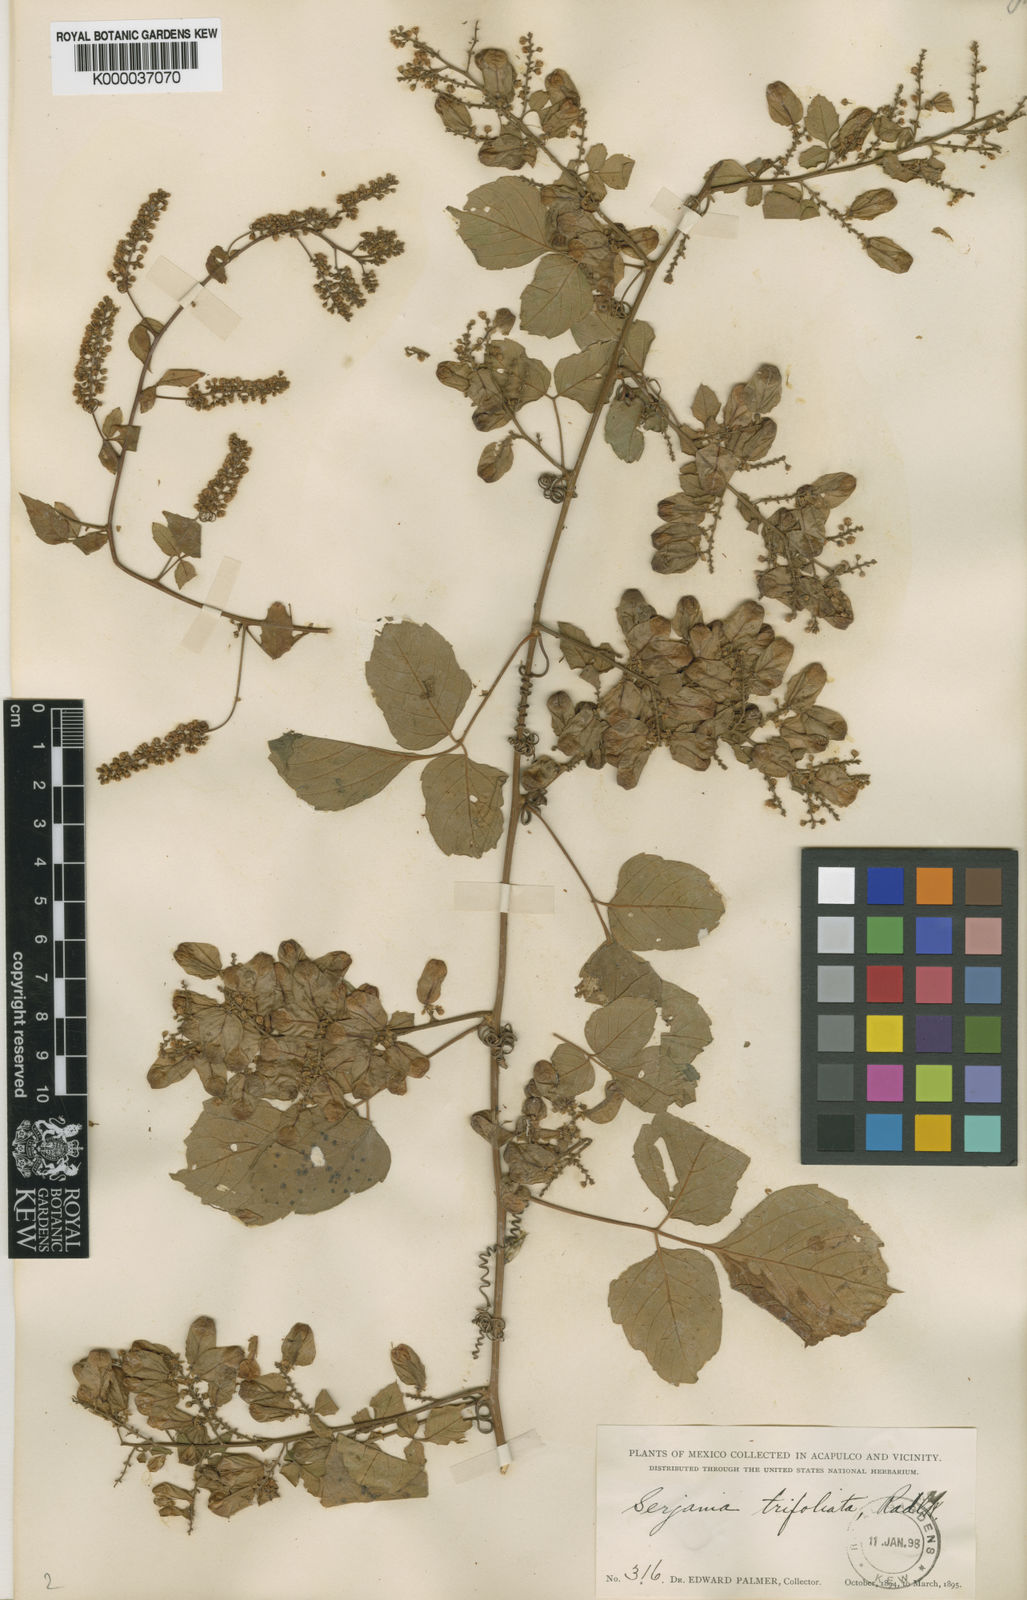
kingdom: Plantae
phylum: Tracheophyta
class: Magnoliopsida
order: Sapindales
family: Sapindaceae
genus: Serjania
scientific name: Serjania trifoliolata
